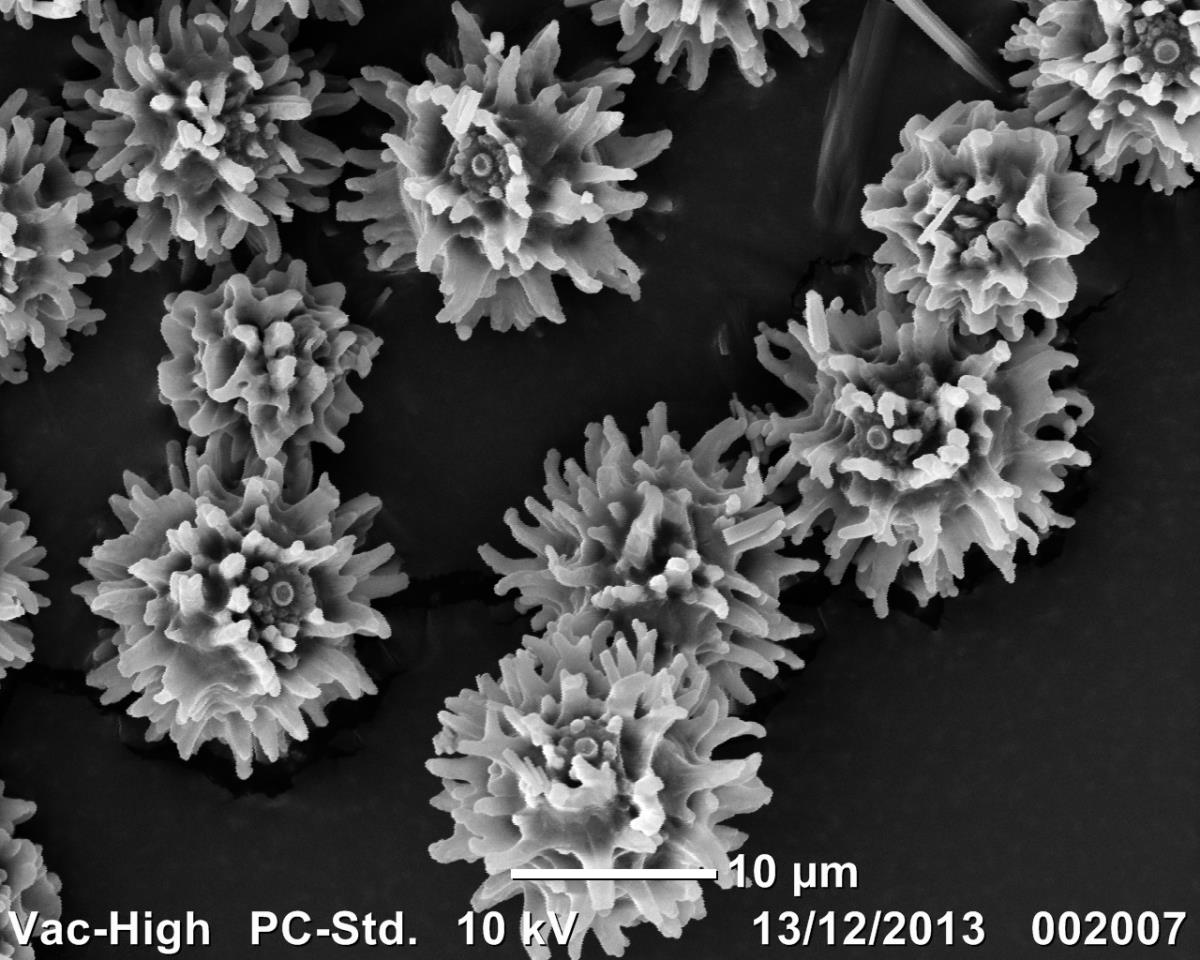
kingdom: Fungi
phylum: Basidiomycota
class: Agaricomycetes
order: Russulales
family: Russulaceae
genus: Russula
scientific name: Russula osphranticarpa
